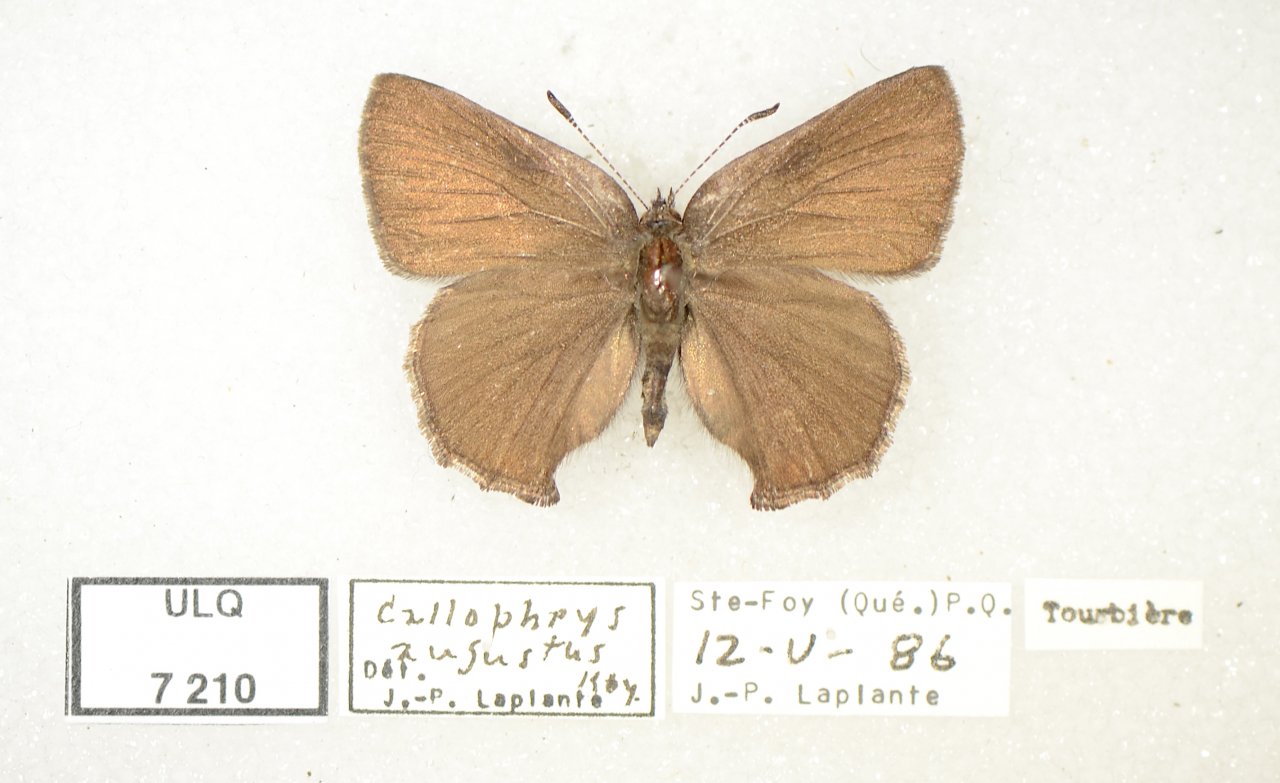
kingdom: Animalia
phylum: Arthropoda
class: Insecta
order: Lepidoptera
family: Lycaenidae
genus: Incisalia
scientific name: Incisalia irioides
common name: Brown Elfin
